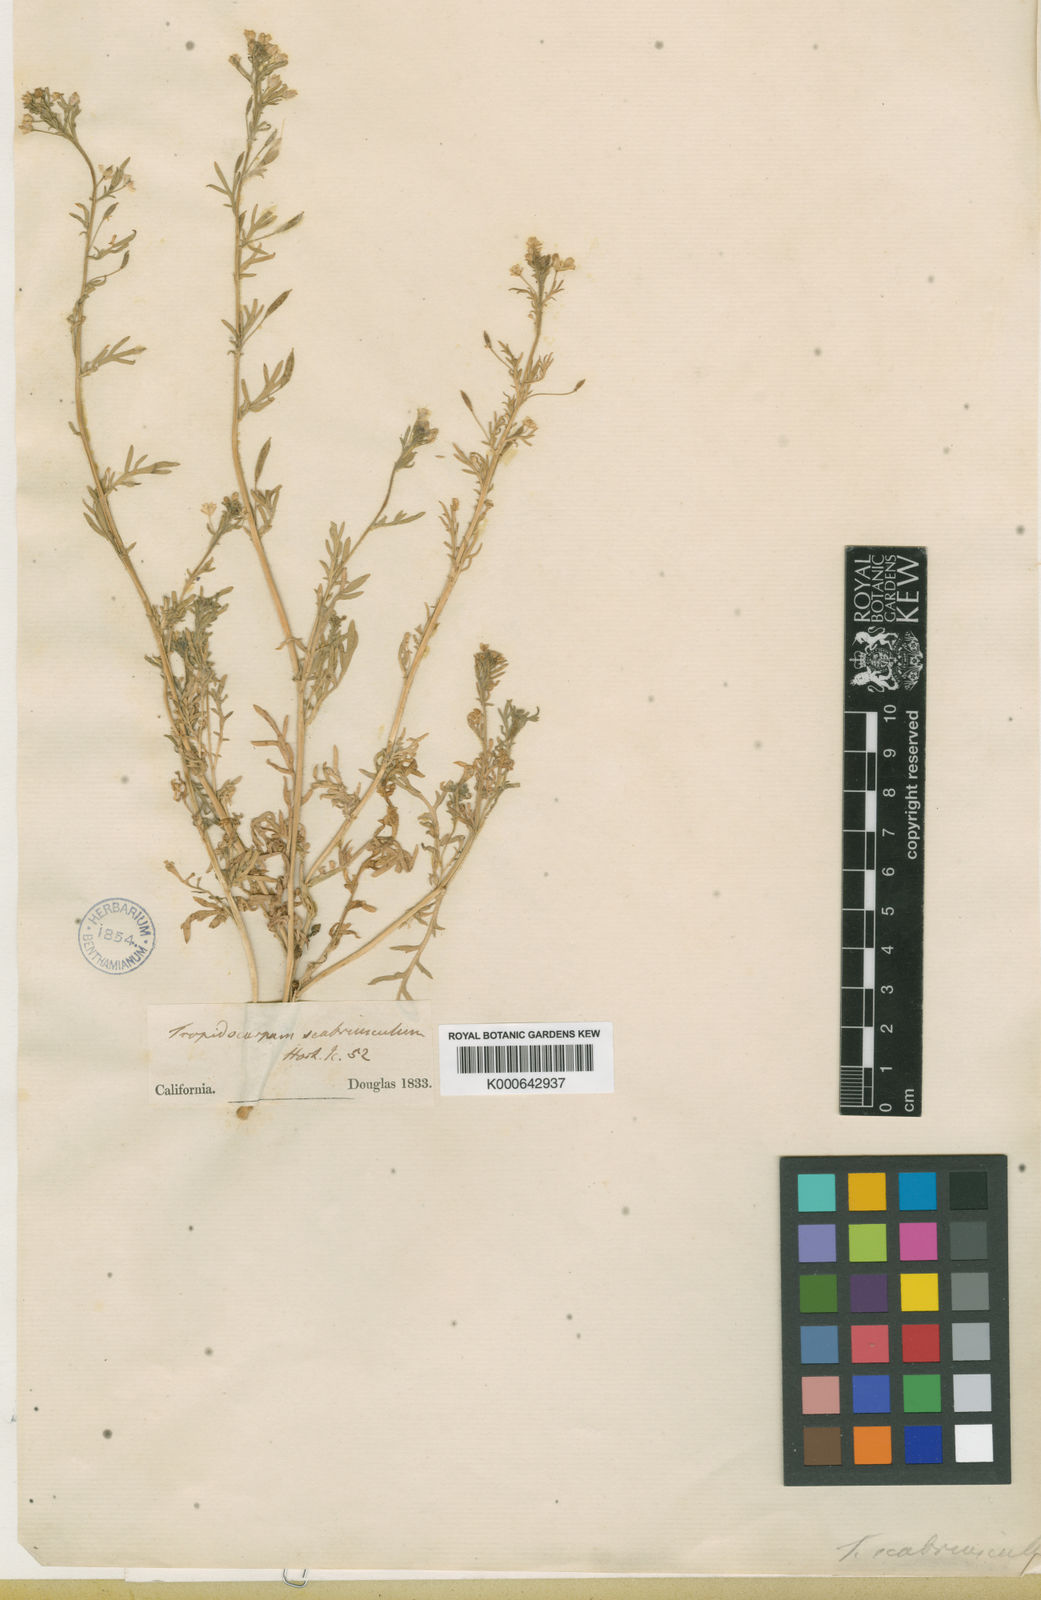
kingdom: Plantae
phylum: Tracheophyta
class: Magnoliopsida
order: Brassicales
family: Brassicaceae
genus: Tropidocarpum
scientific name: Tropidocarpum gracile
